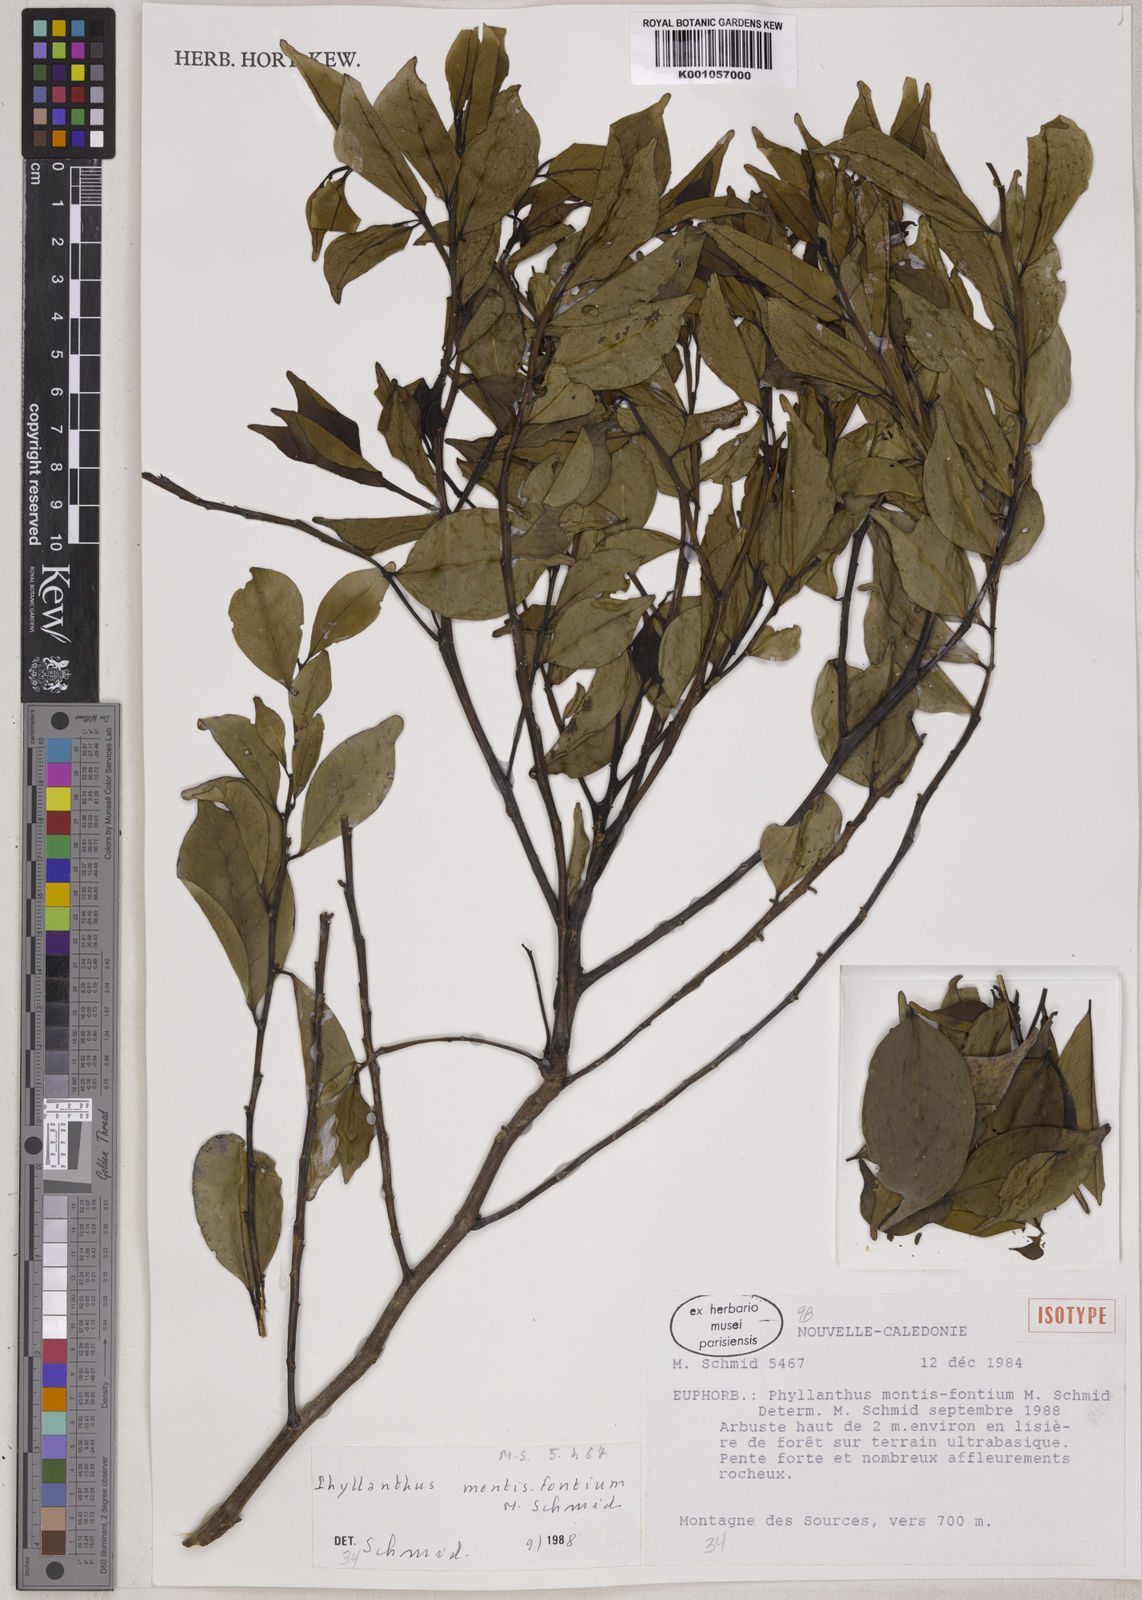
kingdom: Plantae
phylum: Tracheophyta
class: Magnoliopsida
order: Malpighiales
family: Phyllanthaceae
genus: Phyllanthus
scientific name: Phyllanthus montis-fontium
